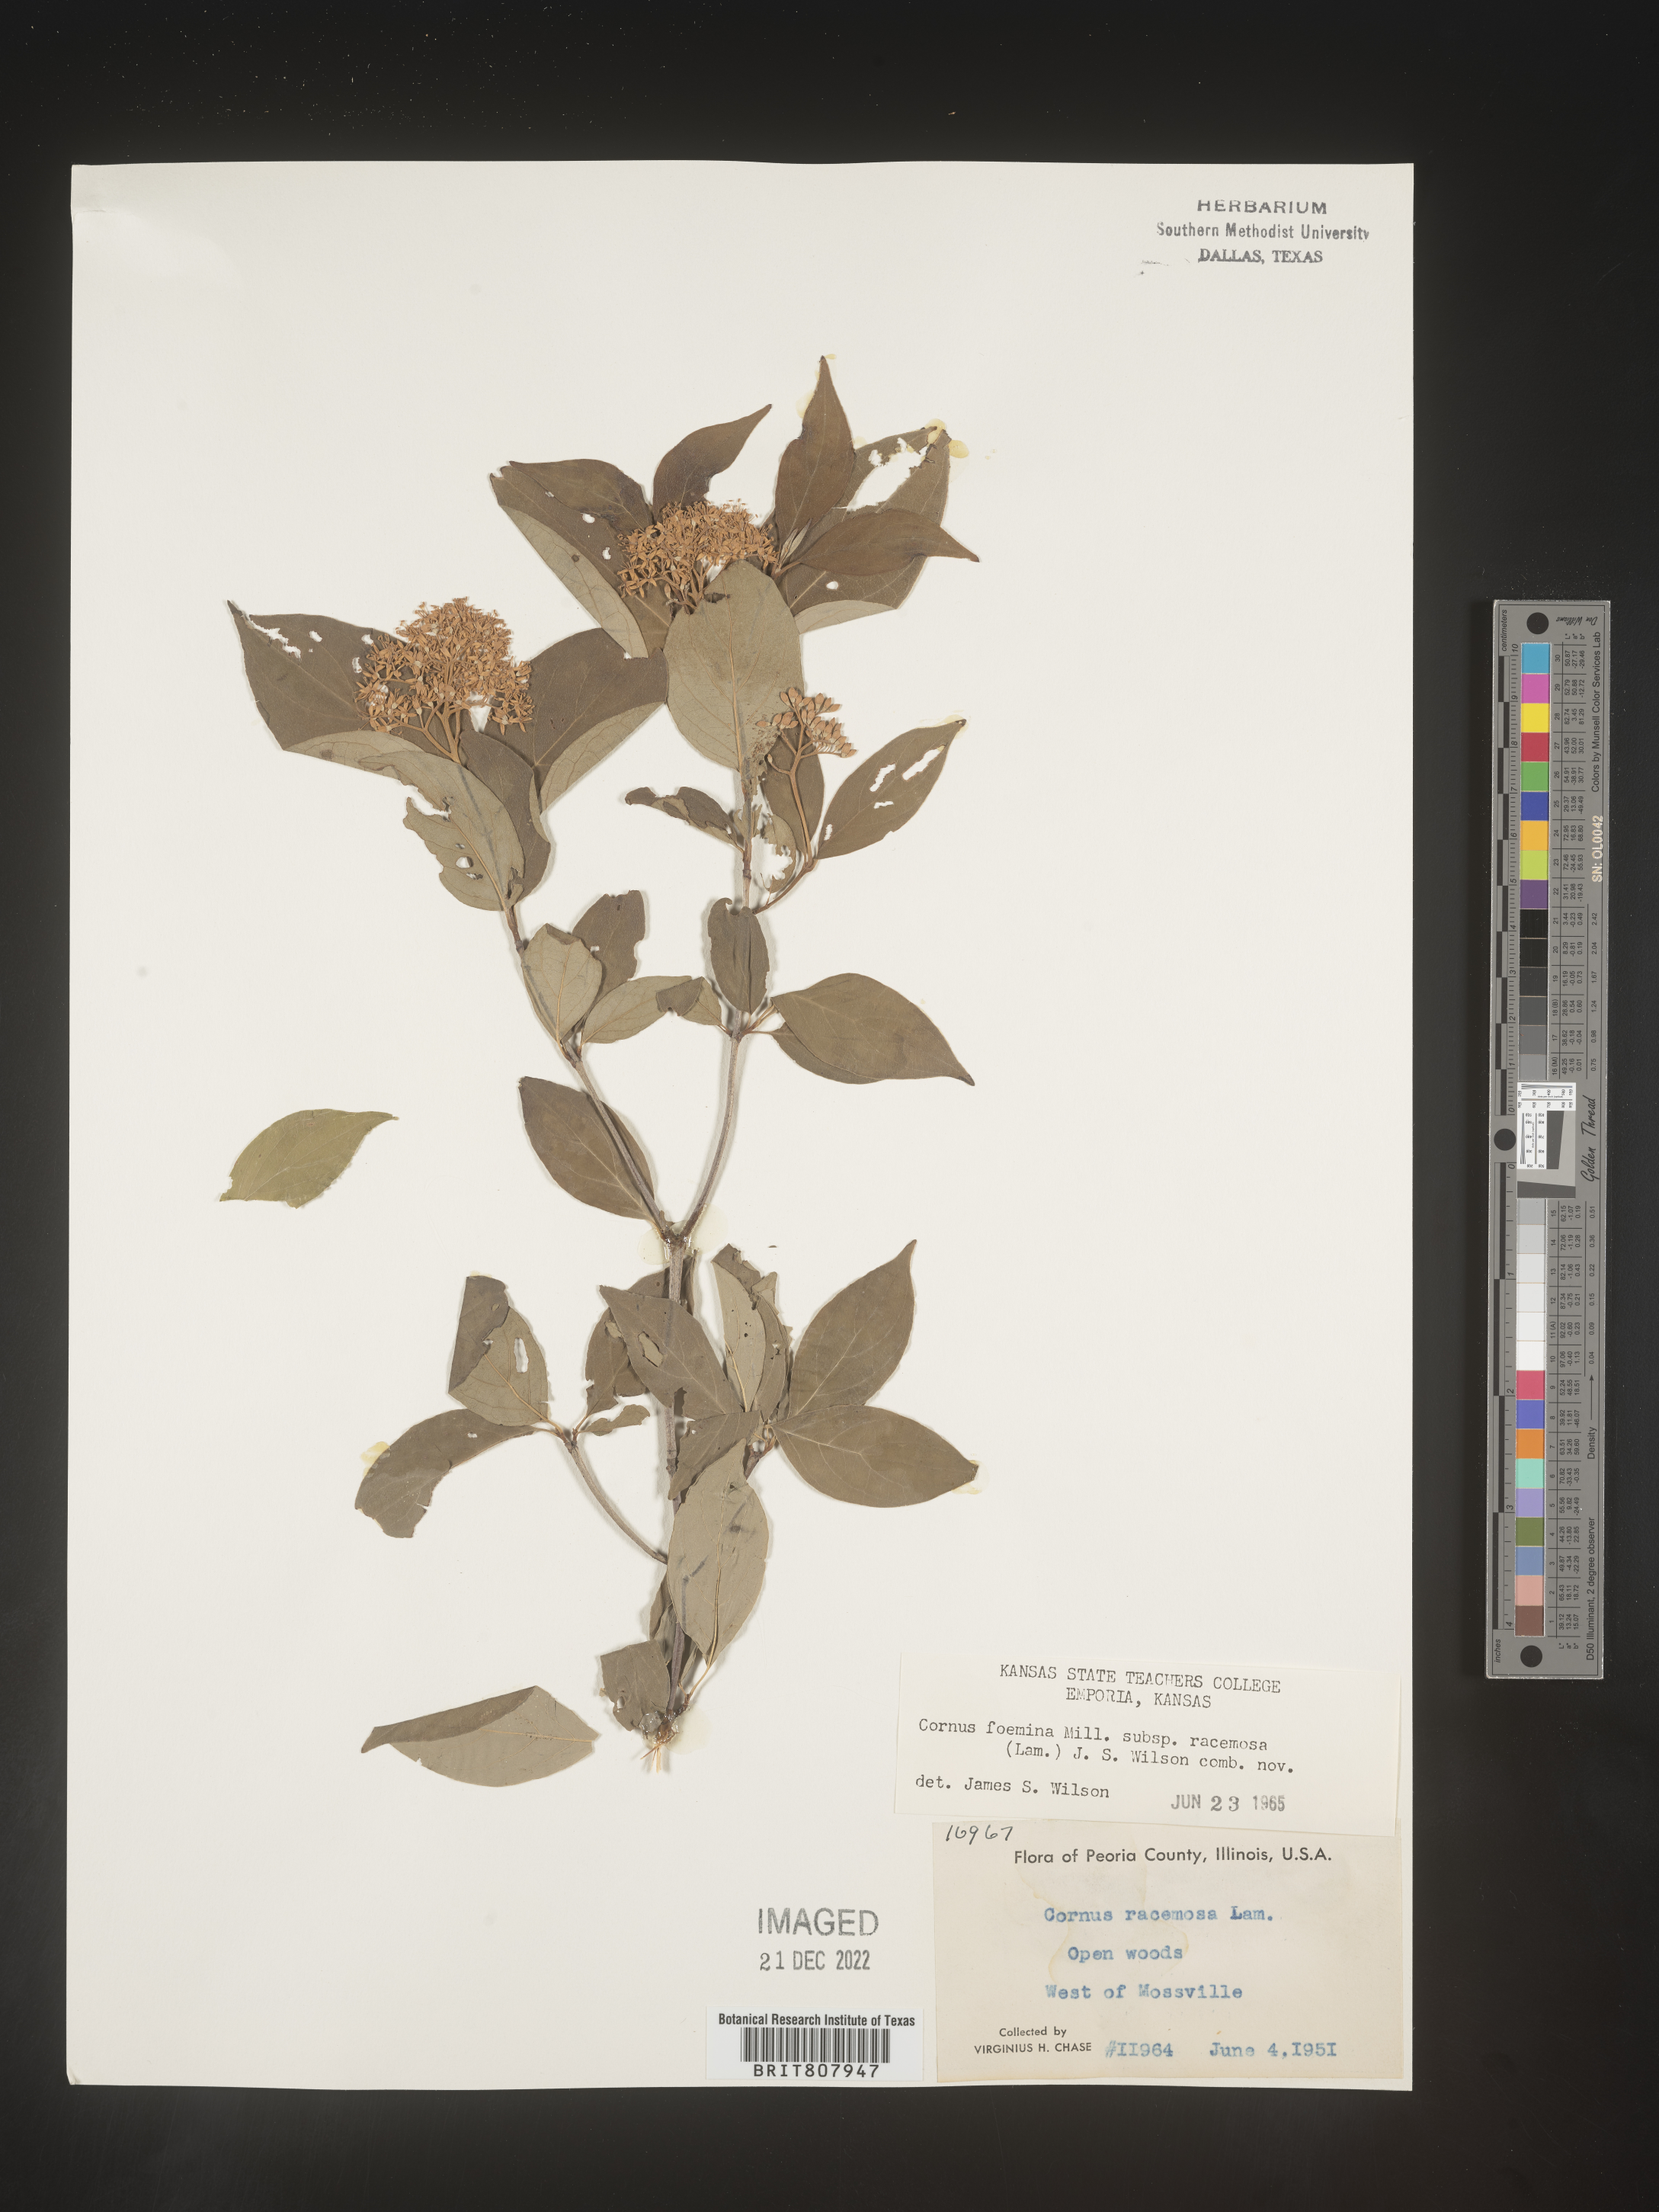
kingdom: Plantae
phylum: Tracheophyta
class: Magnoliopsida
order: Cornales
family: Cornaceae
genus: Cornus
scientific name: Cornus racemosa
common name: Panicled dogwood
